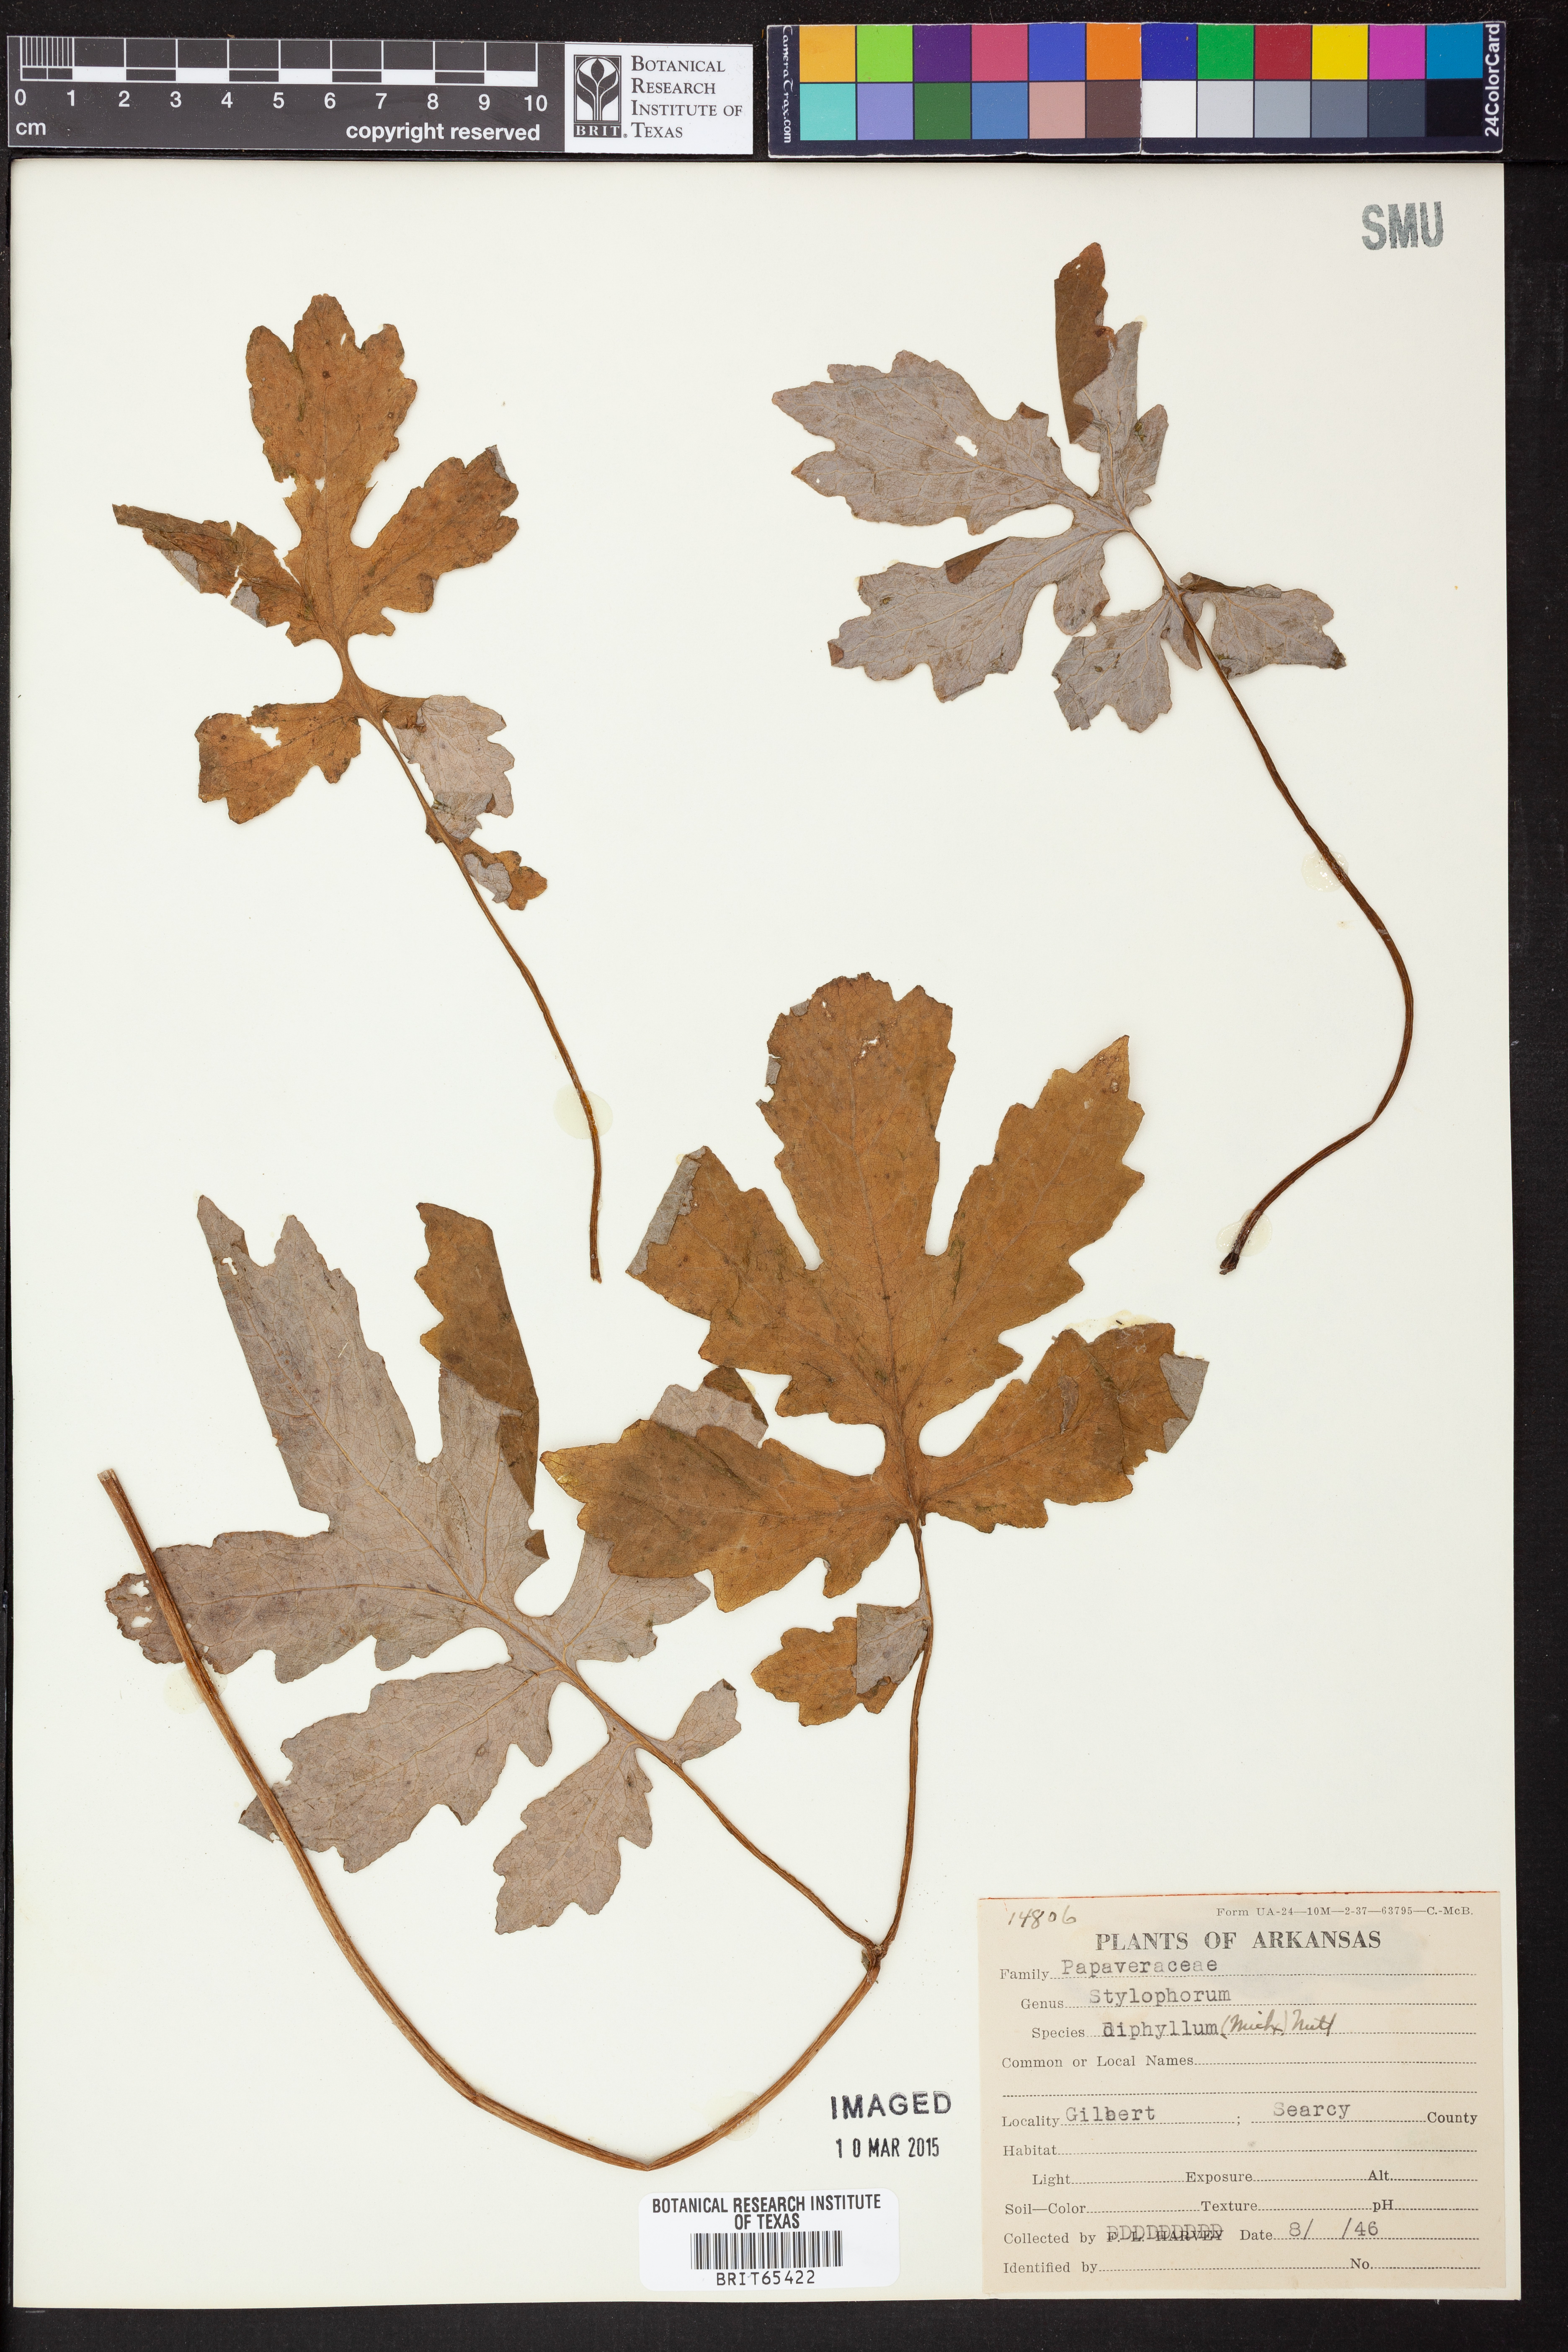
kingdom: Plantae
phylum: Tracheophyta
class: Magnoliopsida
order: Ranunculales
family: Papaveraceae
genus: Stylophorum
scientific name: Stylophorum diphyllum
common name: Celandine poppy
